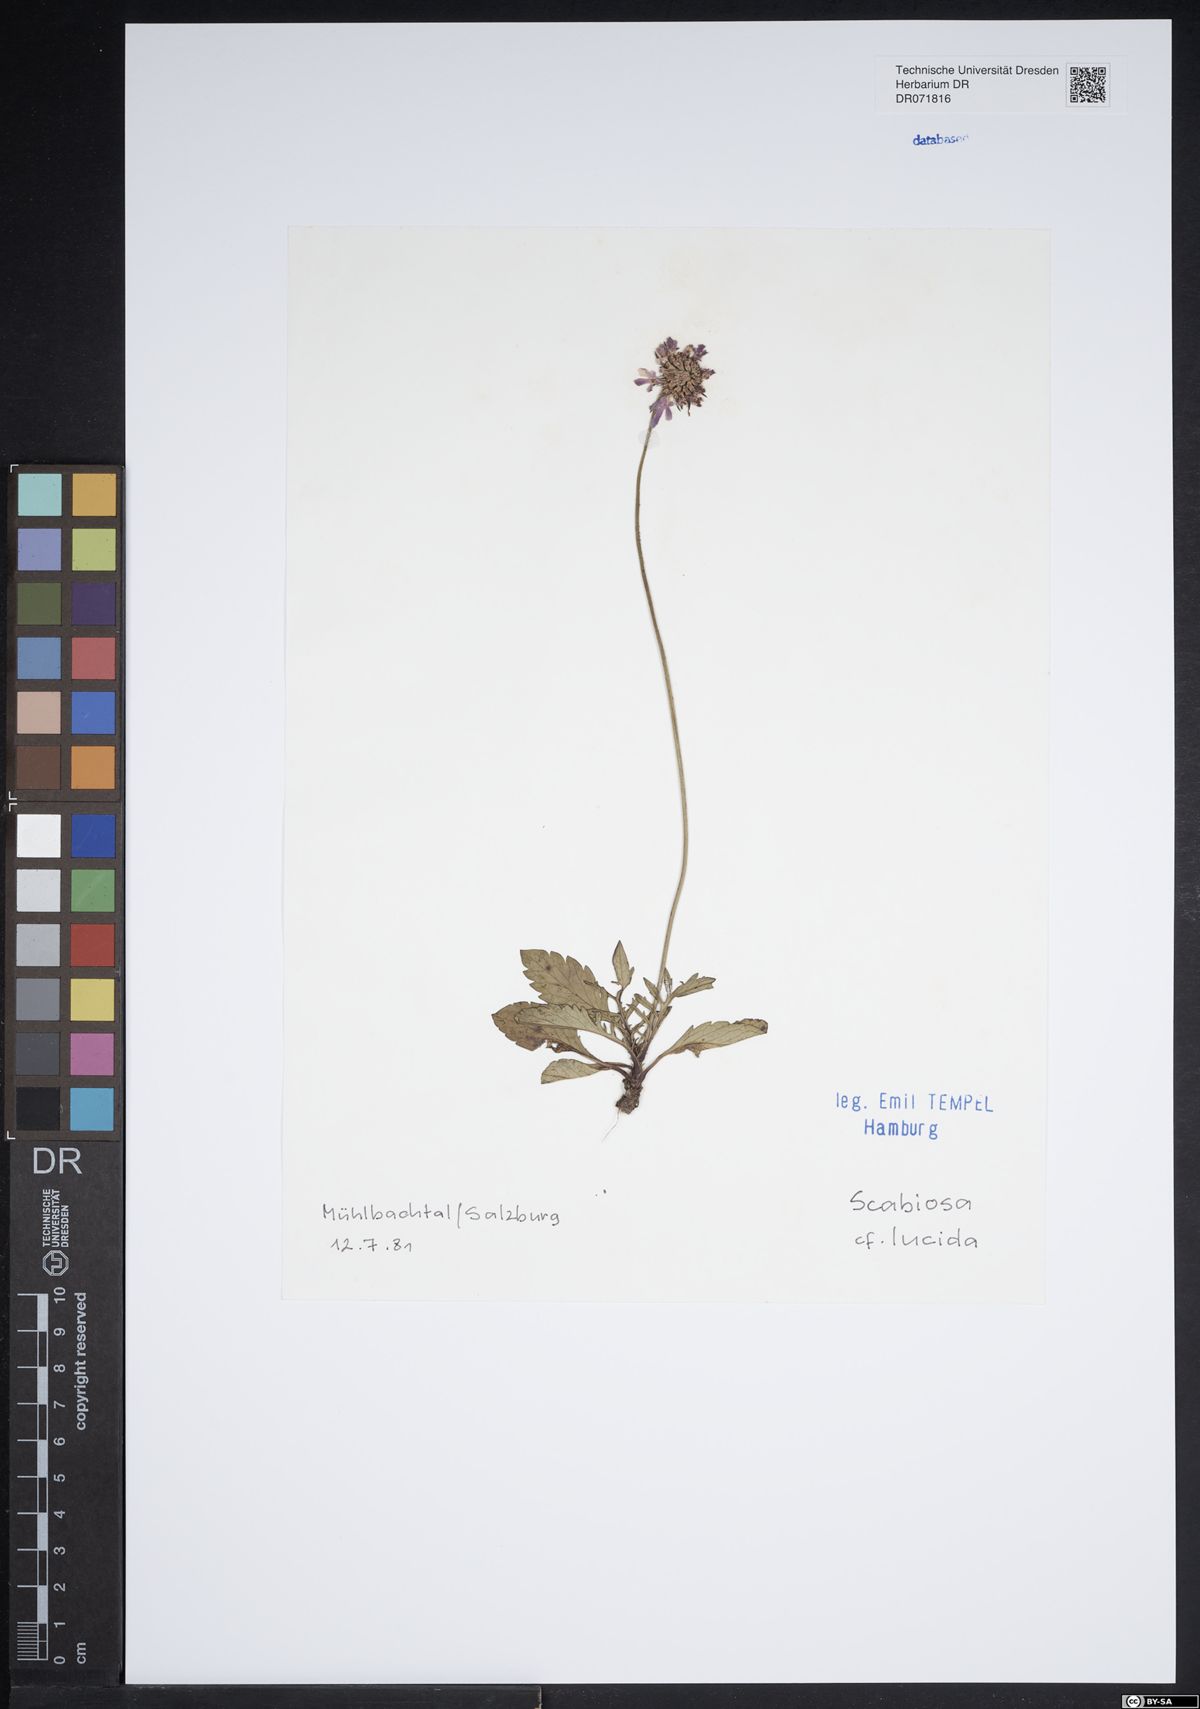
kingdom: Plantae
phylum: Tracheophyta
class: Magnoliopsida
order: Dipsacales
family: Caprifoliaceae
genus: Scabiosa
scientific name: Scabiosa lucida
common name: Shining scabious
